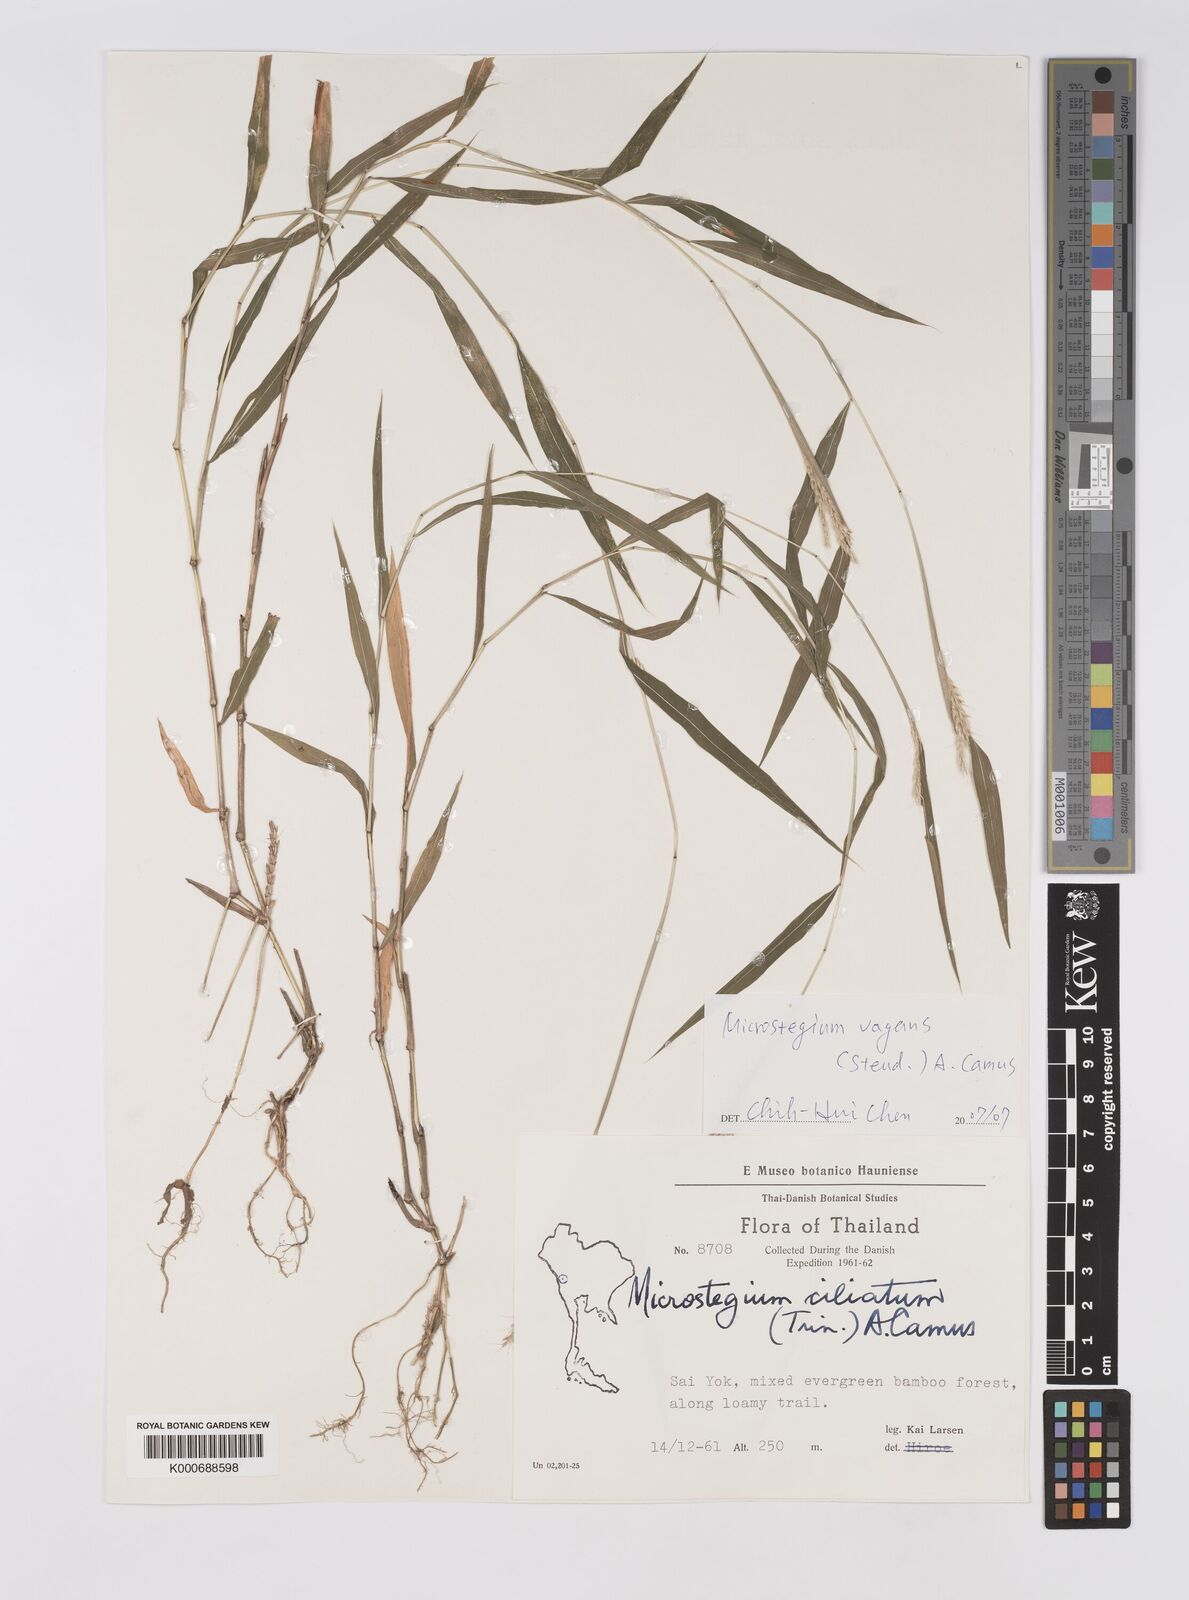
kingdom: Plantae
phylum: Tracheophyta
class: Liliopsida
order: Poales
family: Poaceae
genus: Microstegium
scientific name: Microstegium fasciculatum
